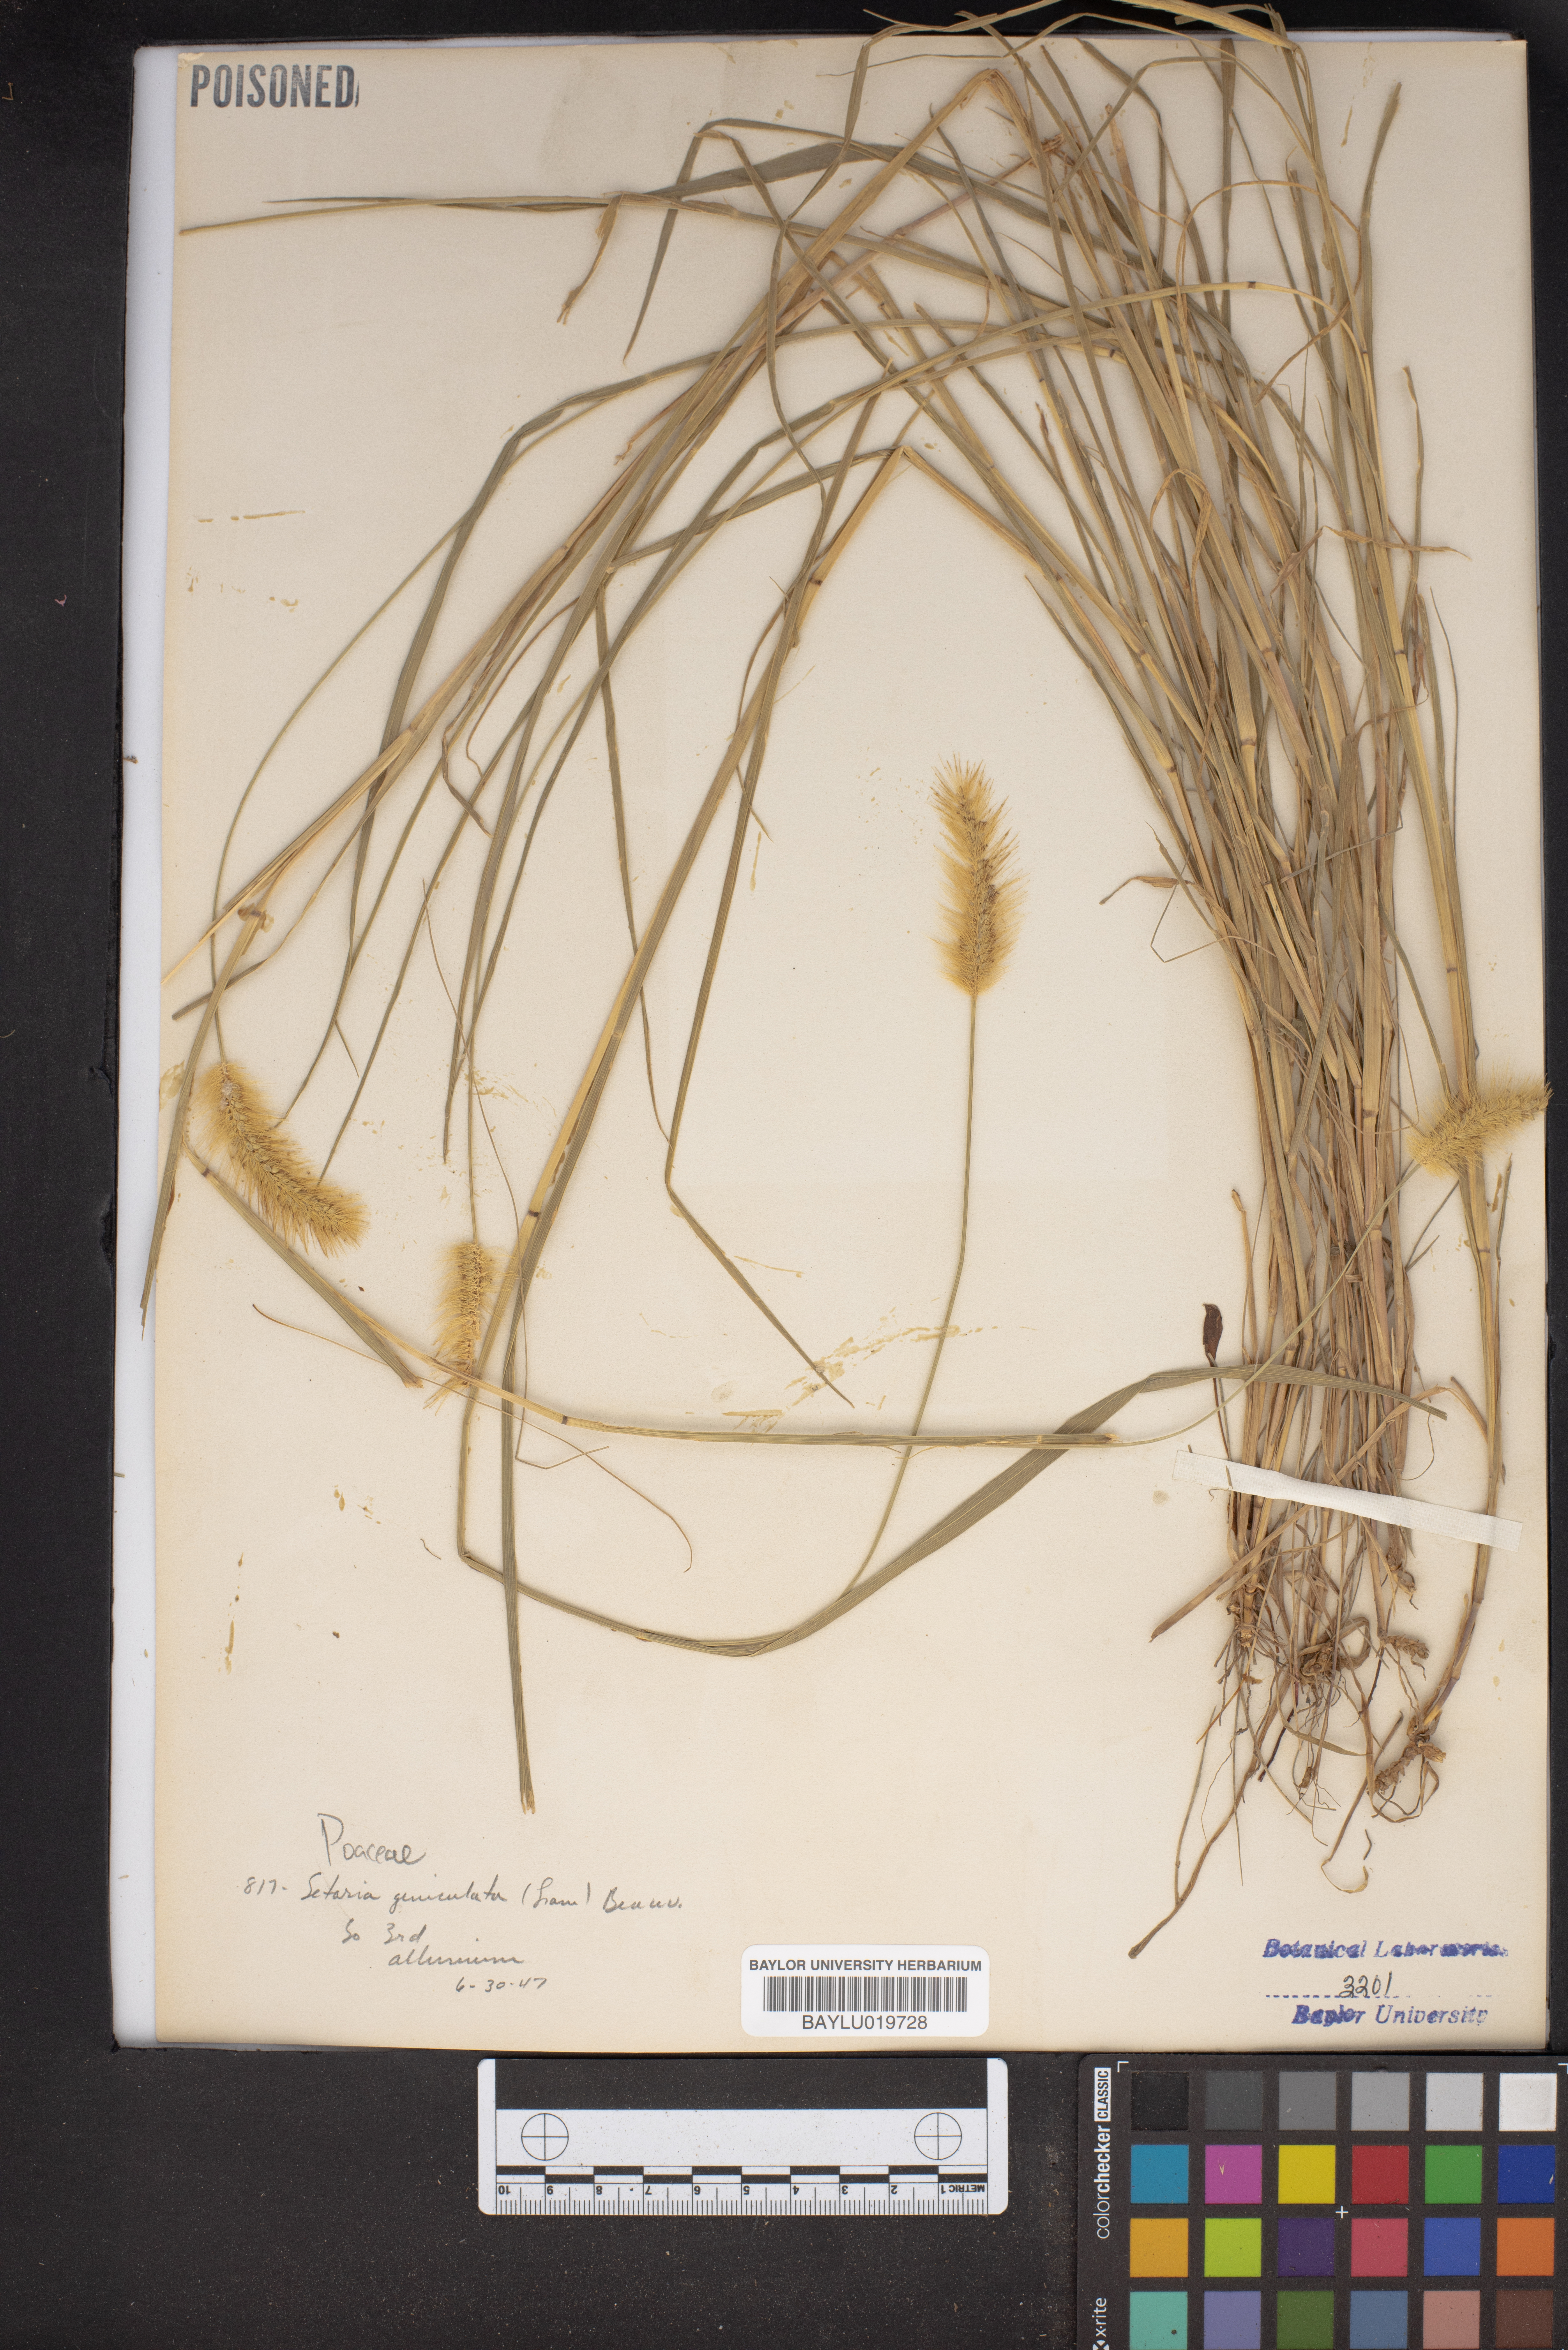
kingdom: Plantae
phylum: Tracheophyta
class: Liliopsida
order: Poales
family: Poaceae
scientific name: Poaceae
